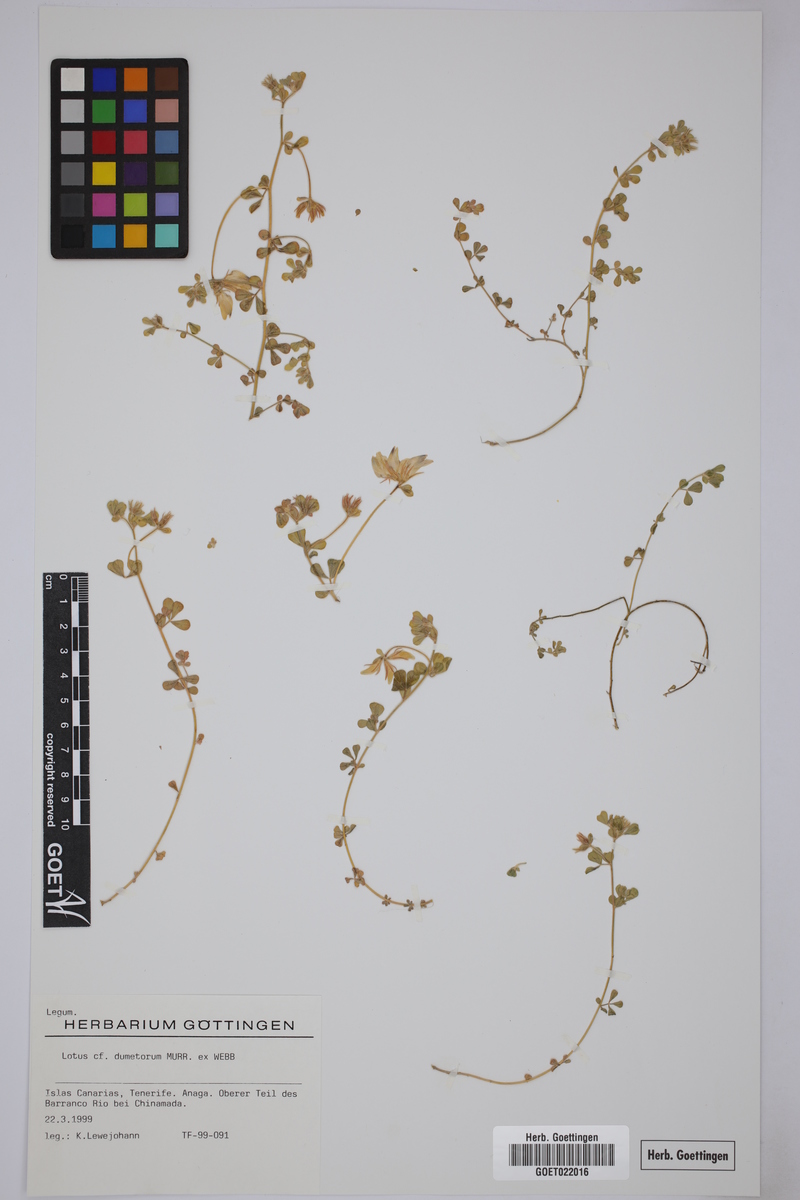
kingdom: Plantae
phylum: Tracheophyta
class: Magnoliopsida
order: Fabales
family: Fabaceae
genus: Lotus
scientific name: Lotus dumetorum
